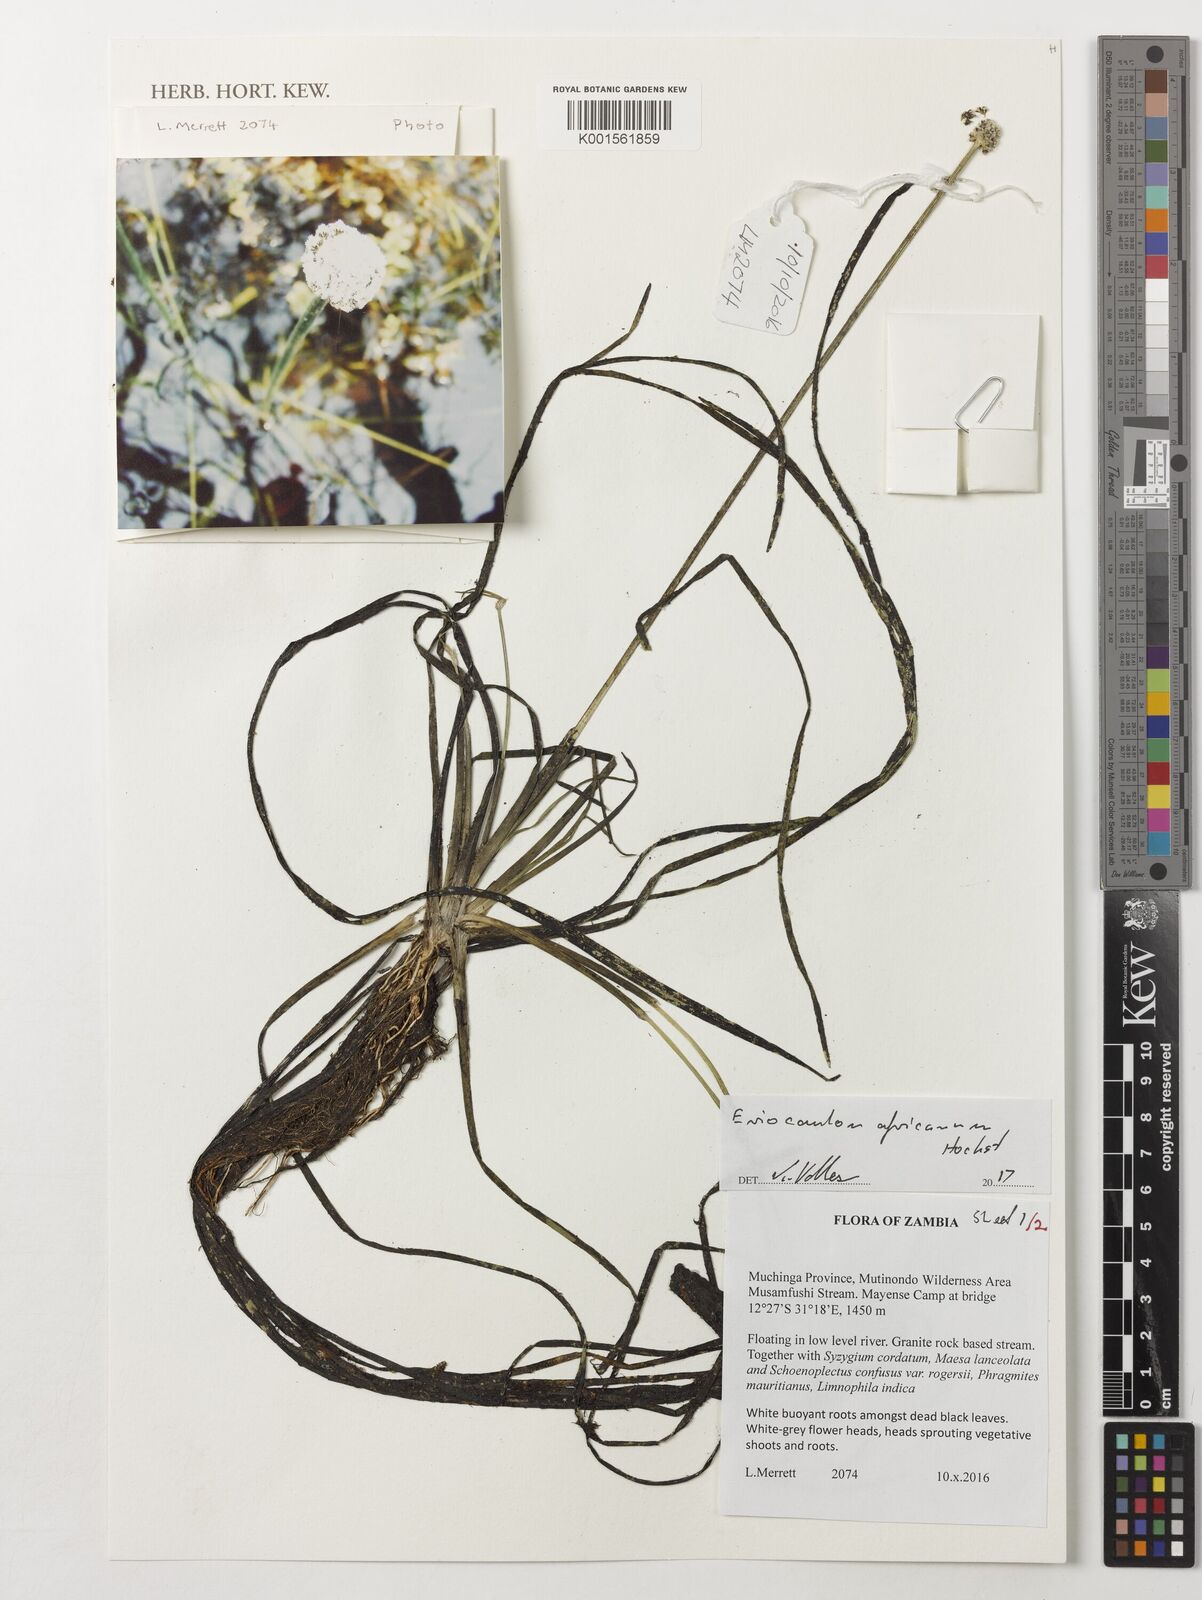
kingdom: Plantae
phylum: Tracheophyta
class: Liliopsida
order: Poales
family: Eriocaulaceae
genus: Eriocaulon
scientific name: Eriocaulon africanum
